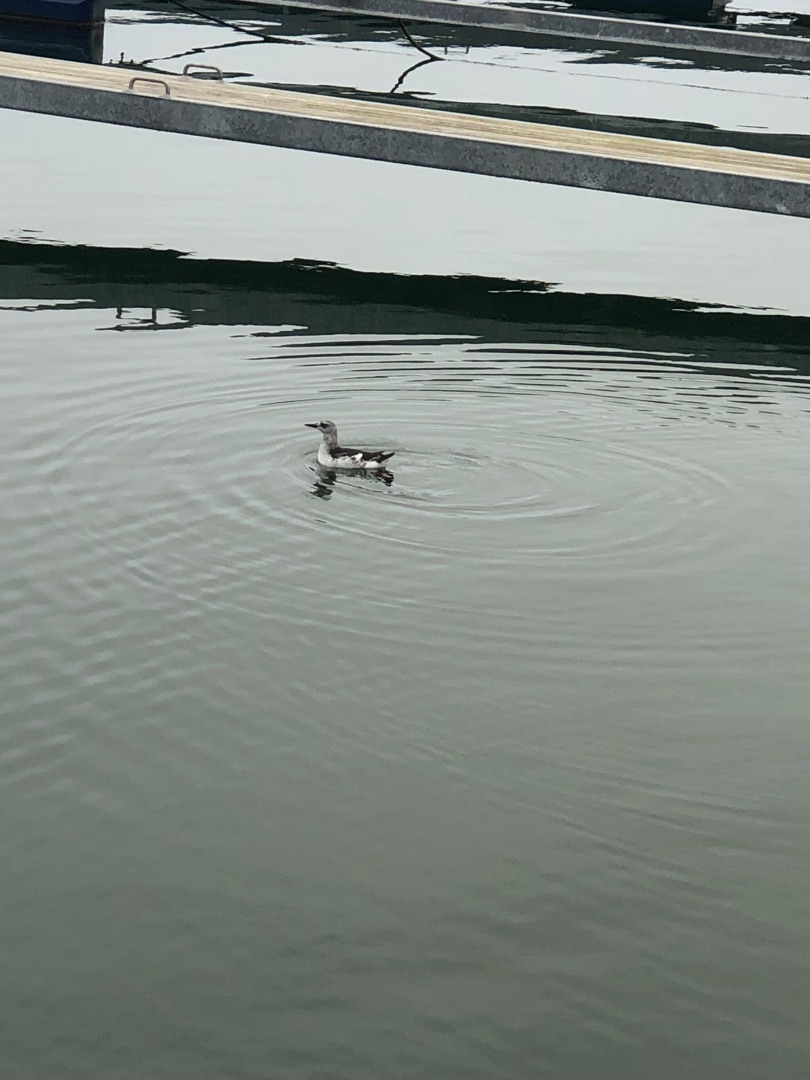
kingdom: Animalia
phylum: Chordata
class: Aves
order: Charadriiformes
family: Alcidae
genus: Cepphus
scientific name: Cepphus grylle
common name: Tejst
